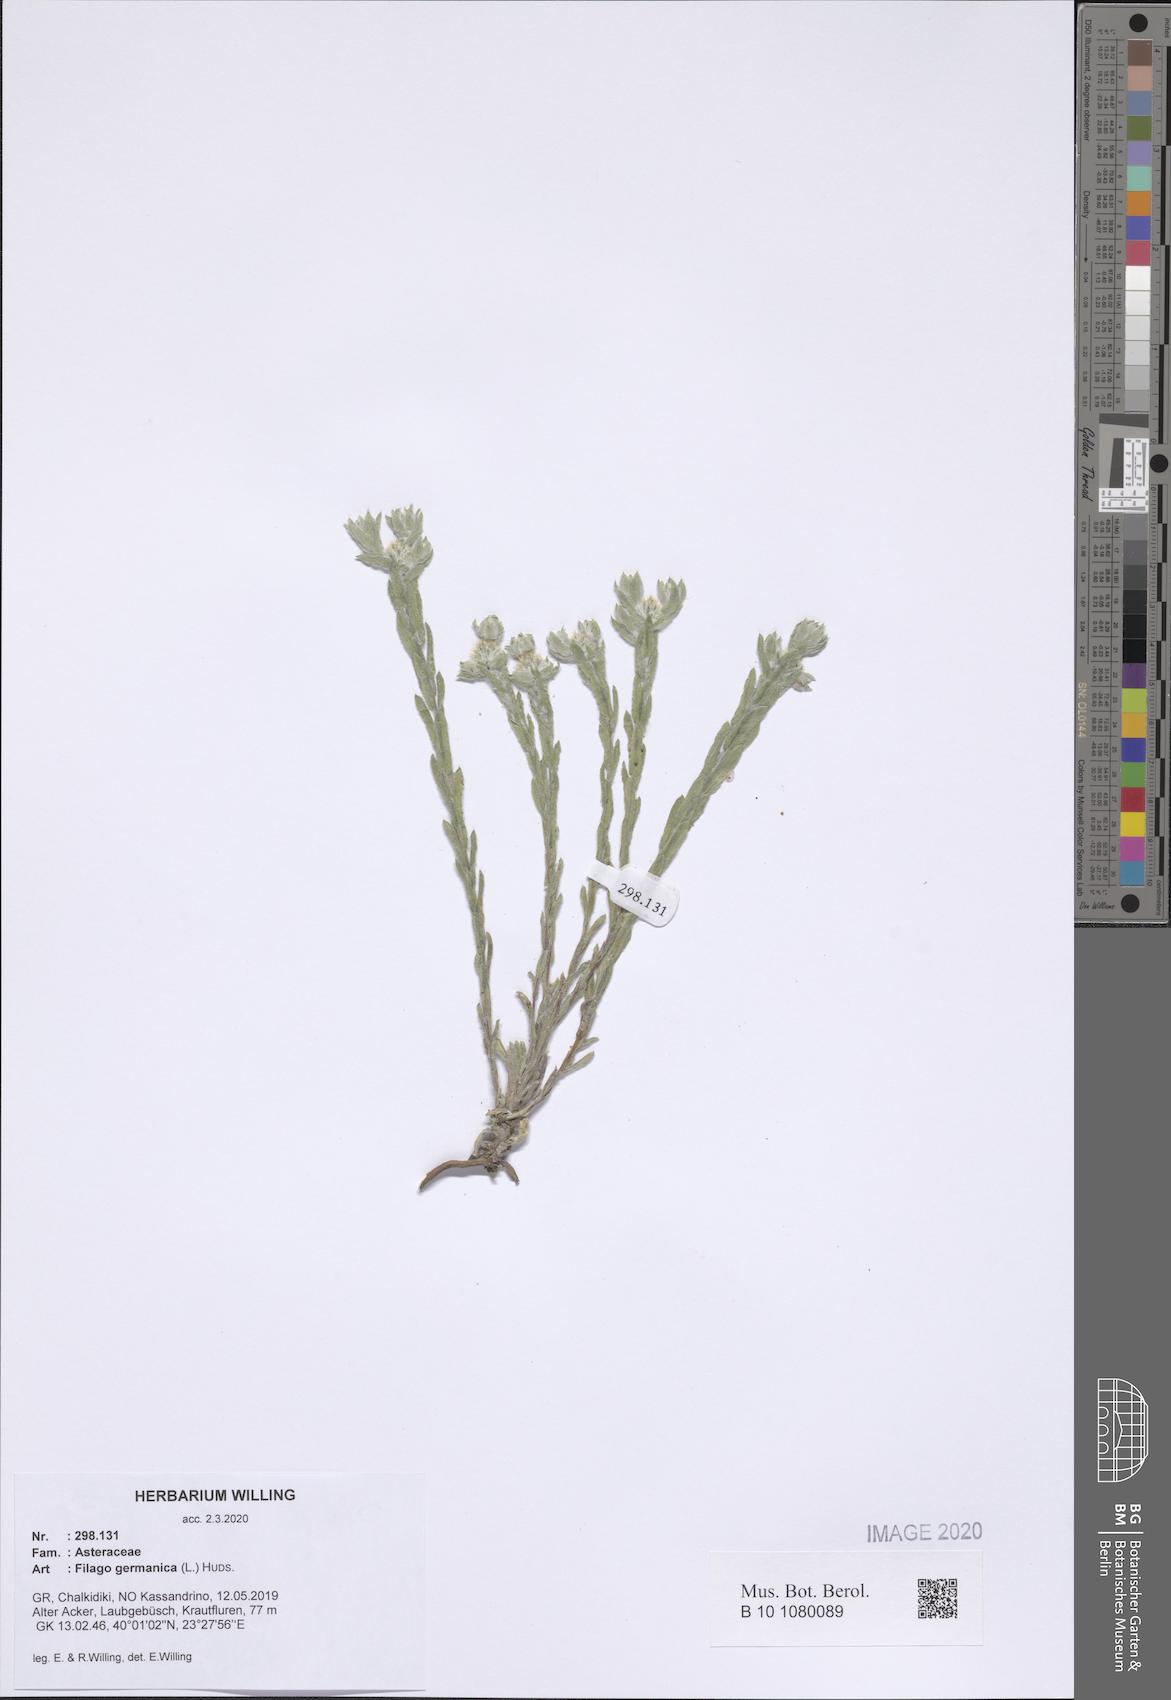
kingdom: Plantae
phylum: Tracheophyta
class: Magnoliopsida
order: Asterales
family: Asteraceae
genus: Filago
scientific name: Filago germanica
